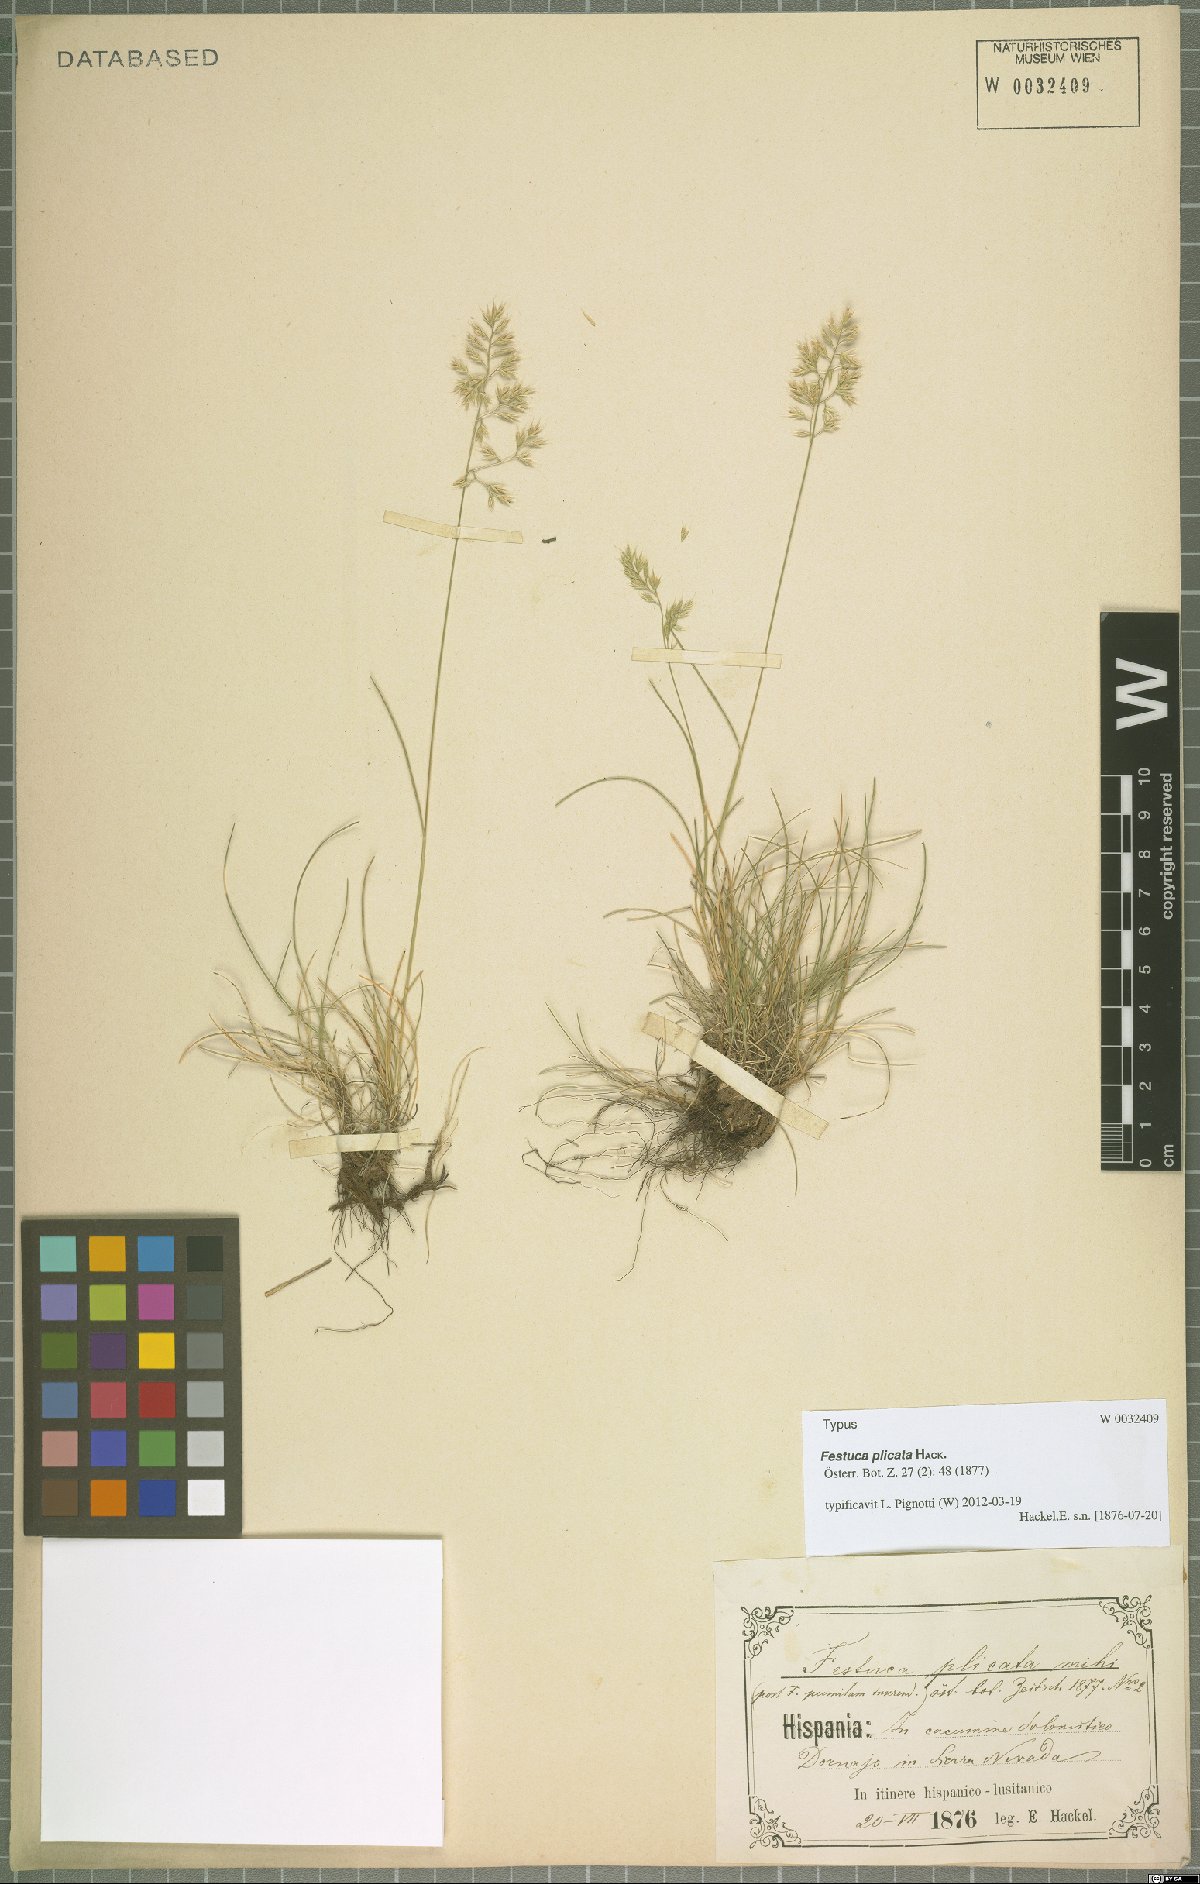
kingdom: Plantae
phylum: Tracheophyta
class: Liliopsida
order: Poales
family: Poaceae
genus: Festuca
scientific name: Festuca plicata
